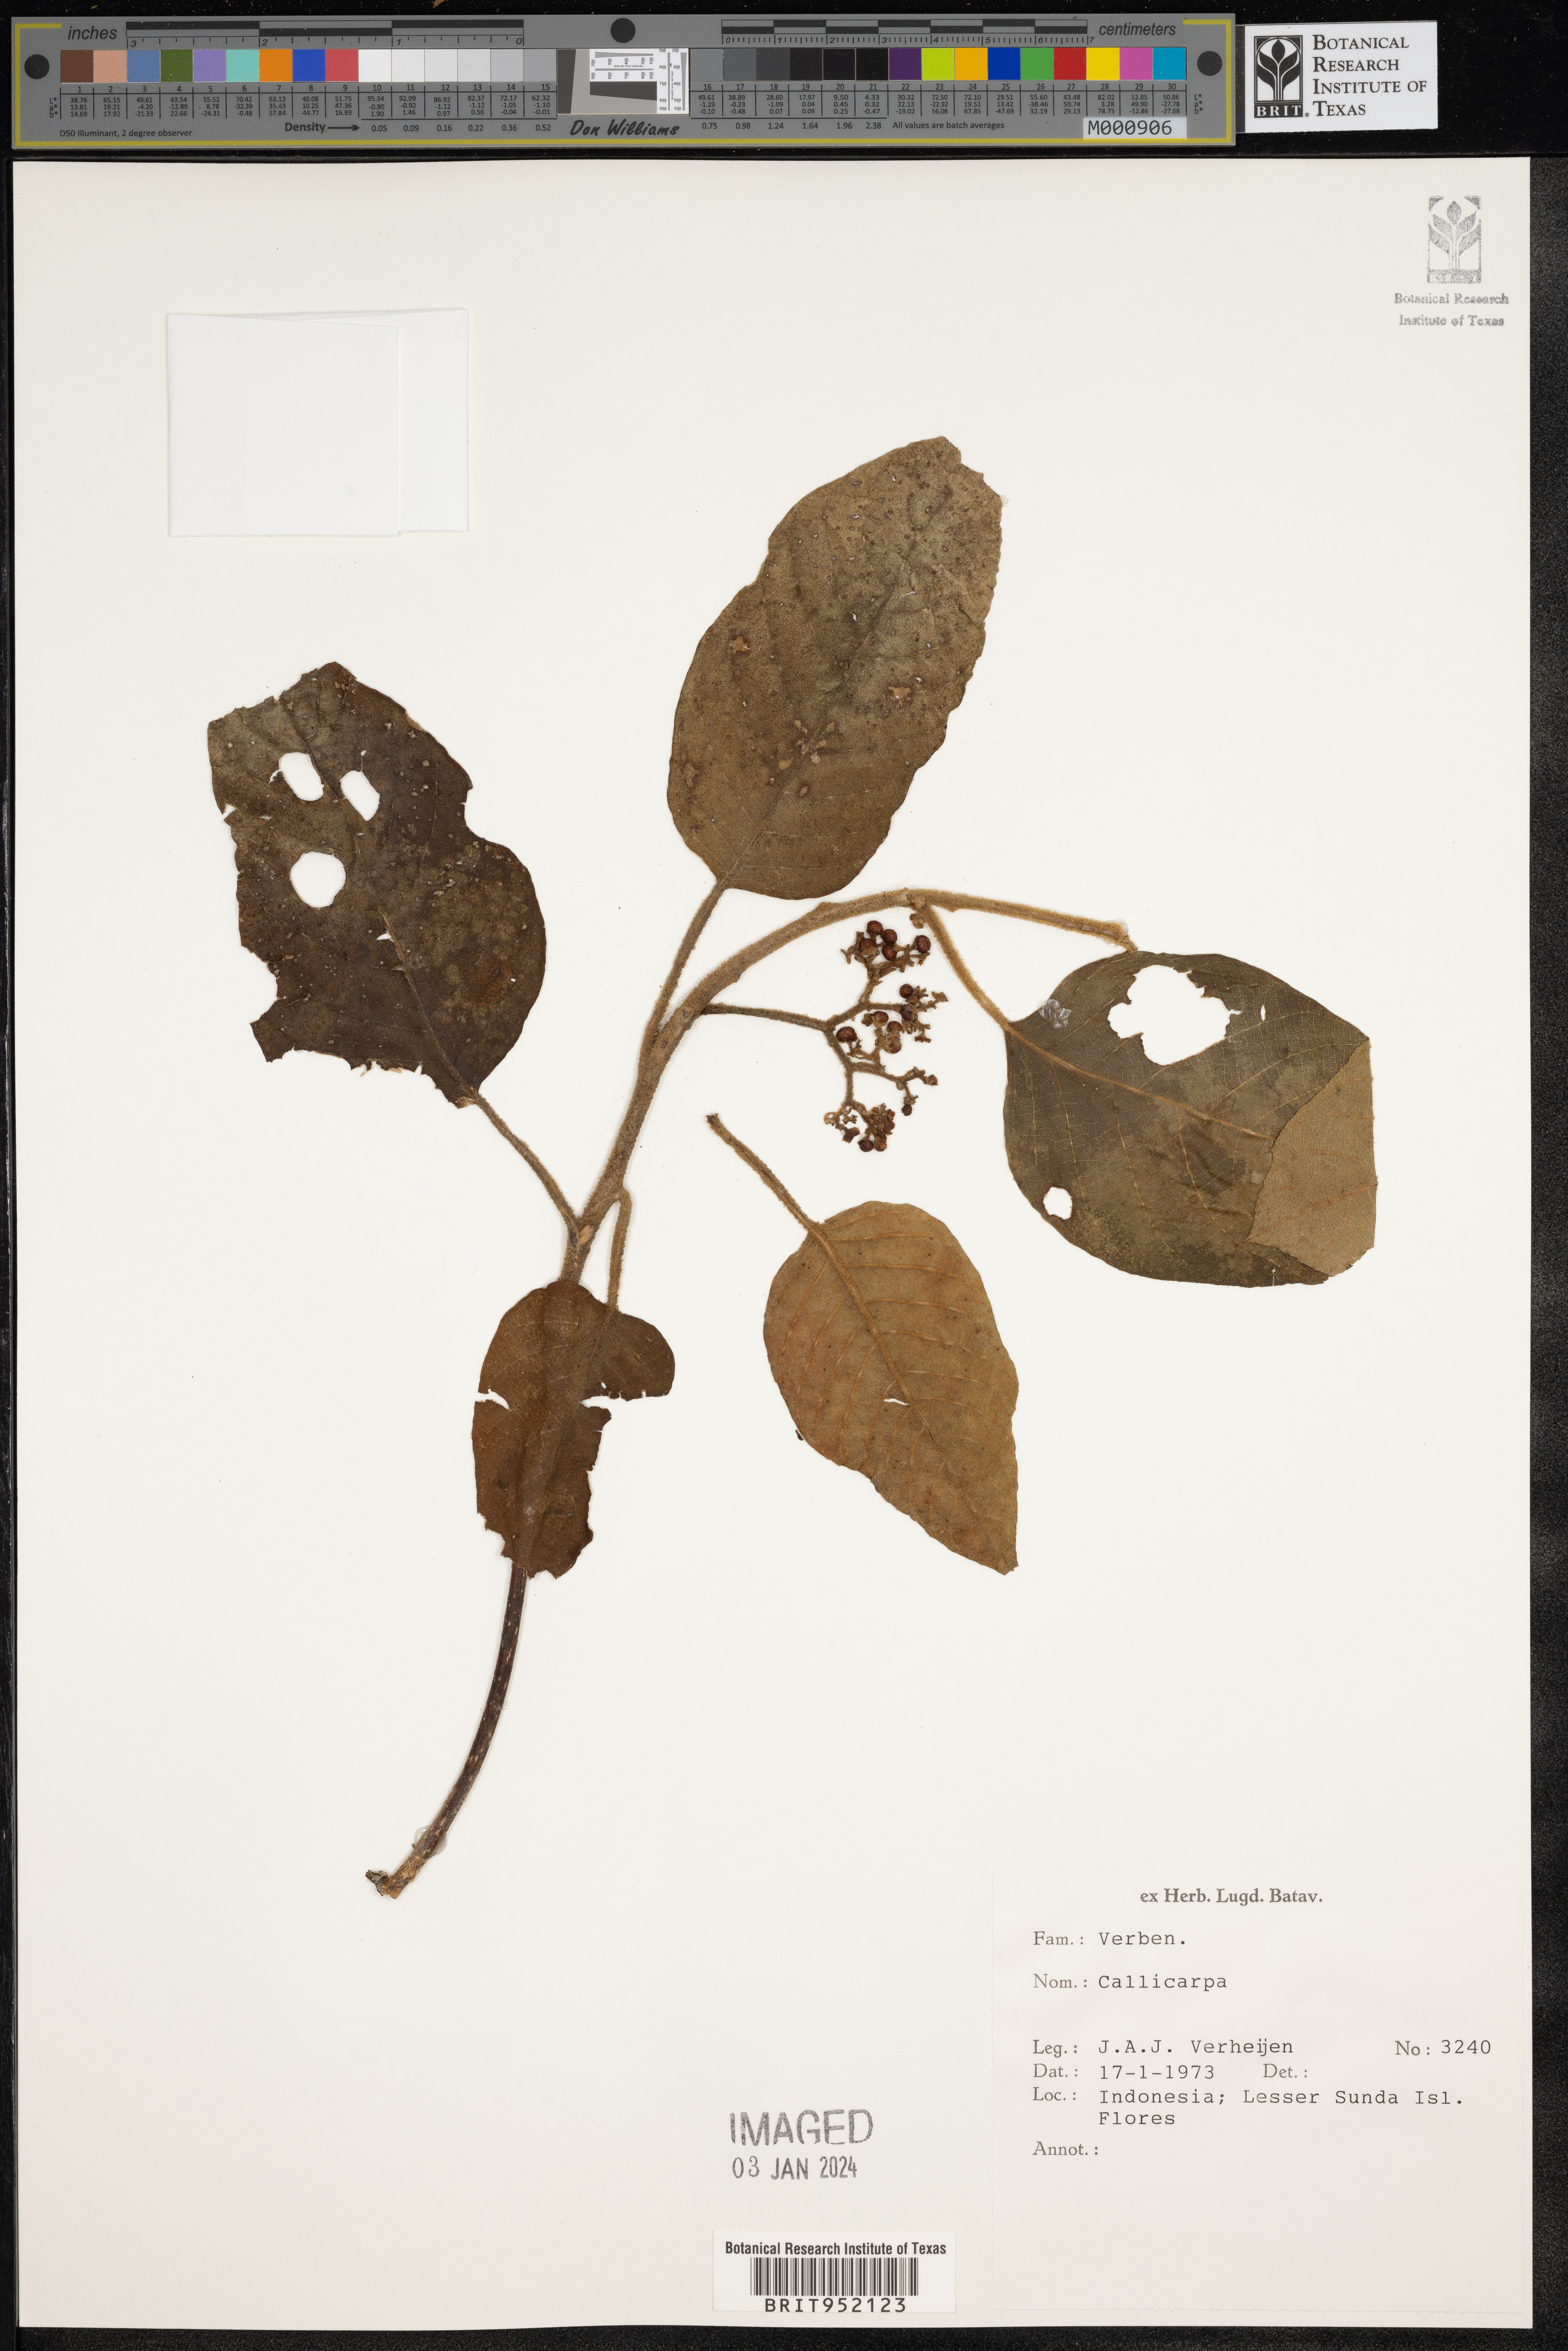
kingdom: Plantae
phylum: Tracheophyta
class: Magnoliopsida
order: Lamiales
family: Lamiaceae
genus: Callicarpa
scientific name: Callicarpa
